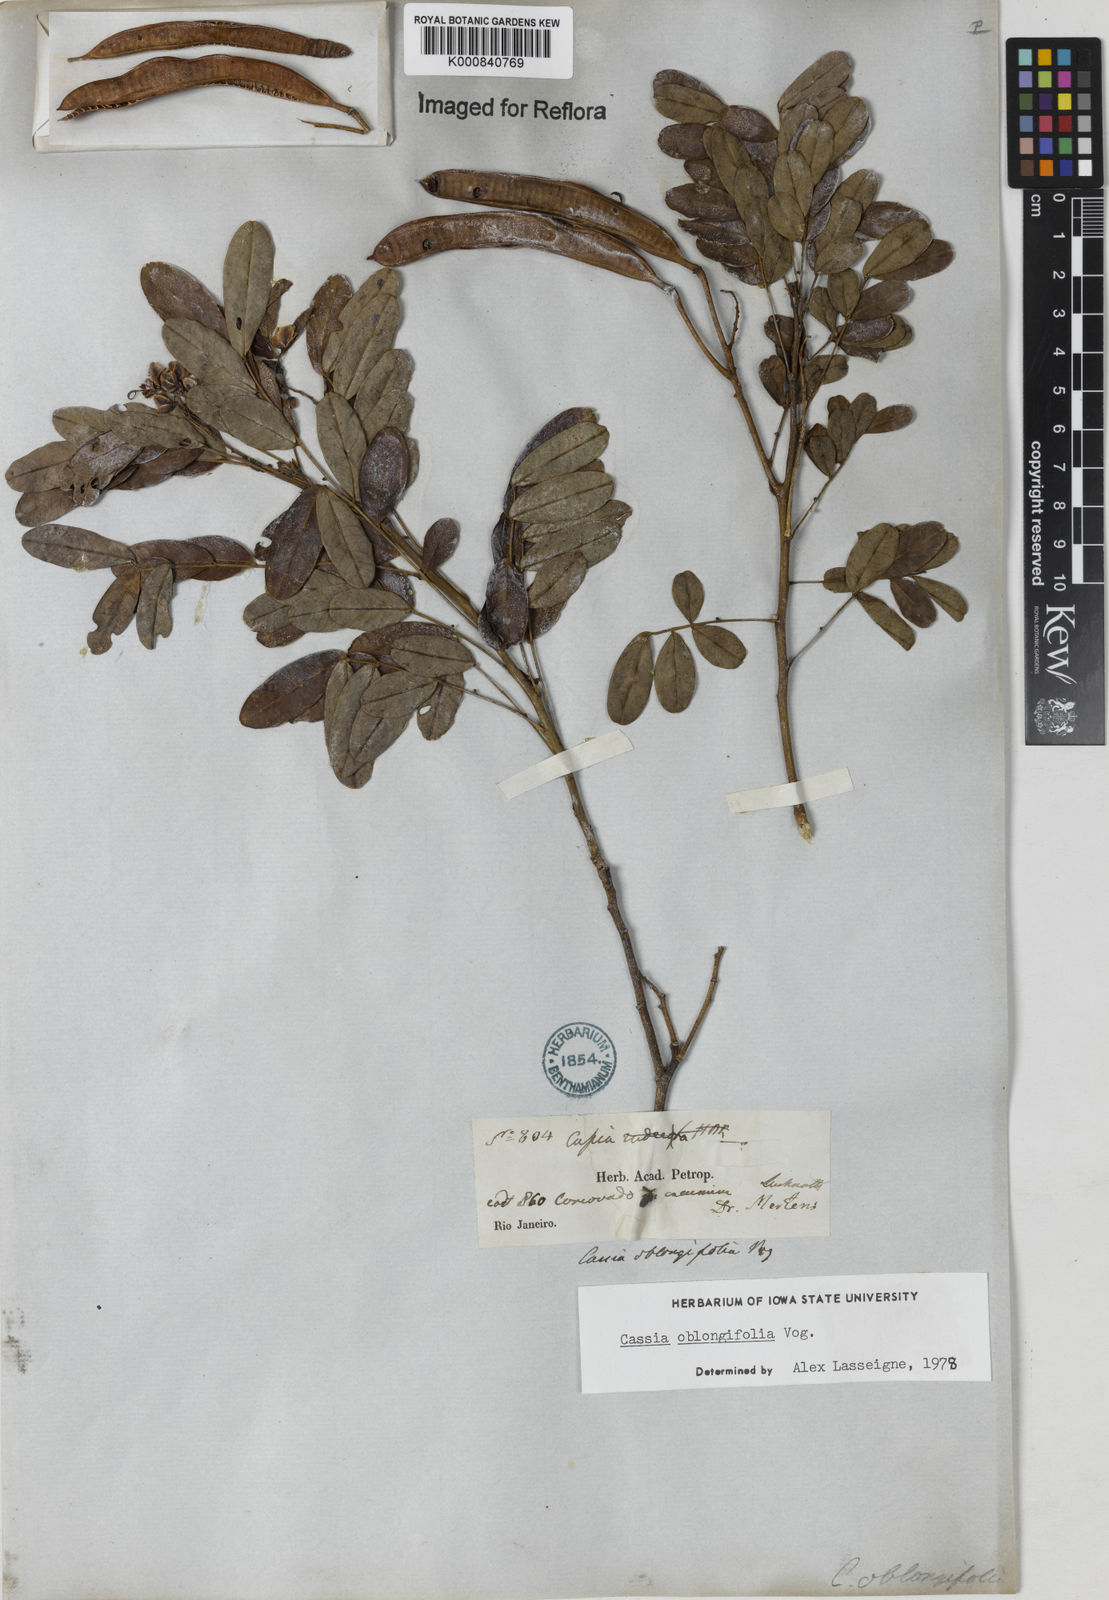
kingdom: Plantae
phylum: Tracheophyta
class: Magnoliopsida
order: Fabales
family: Fabaceae
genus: Senna
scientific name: Senna oblongifolia
